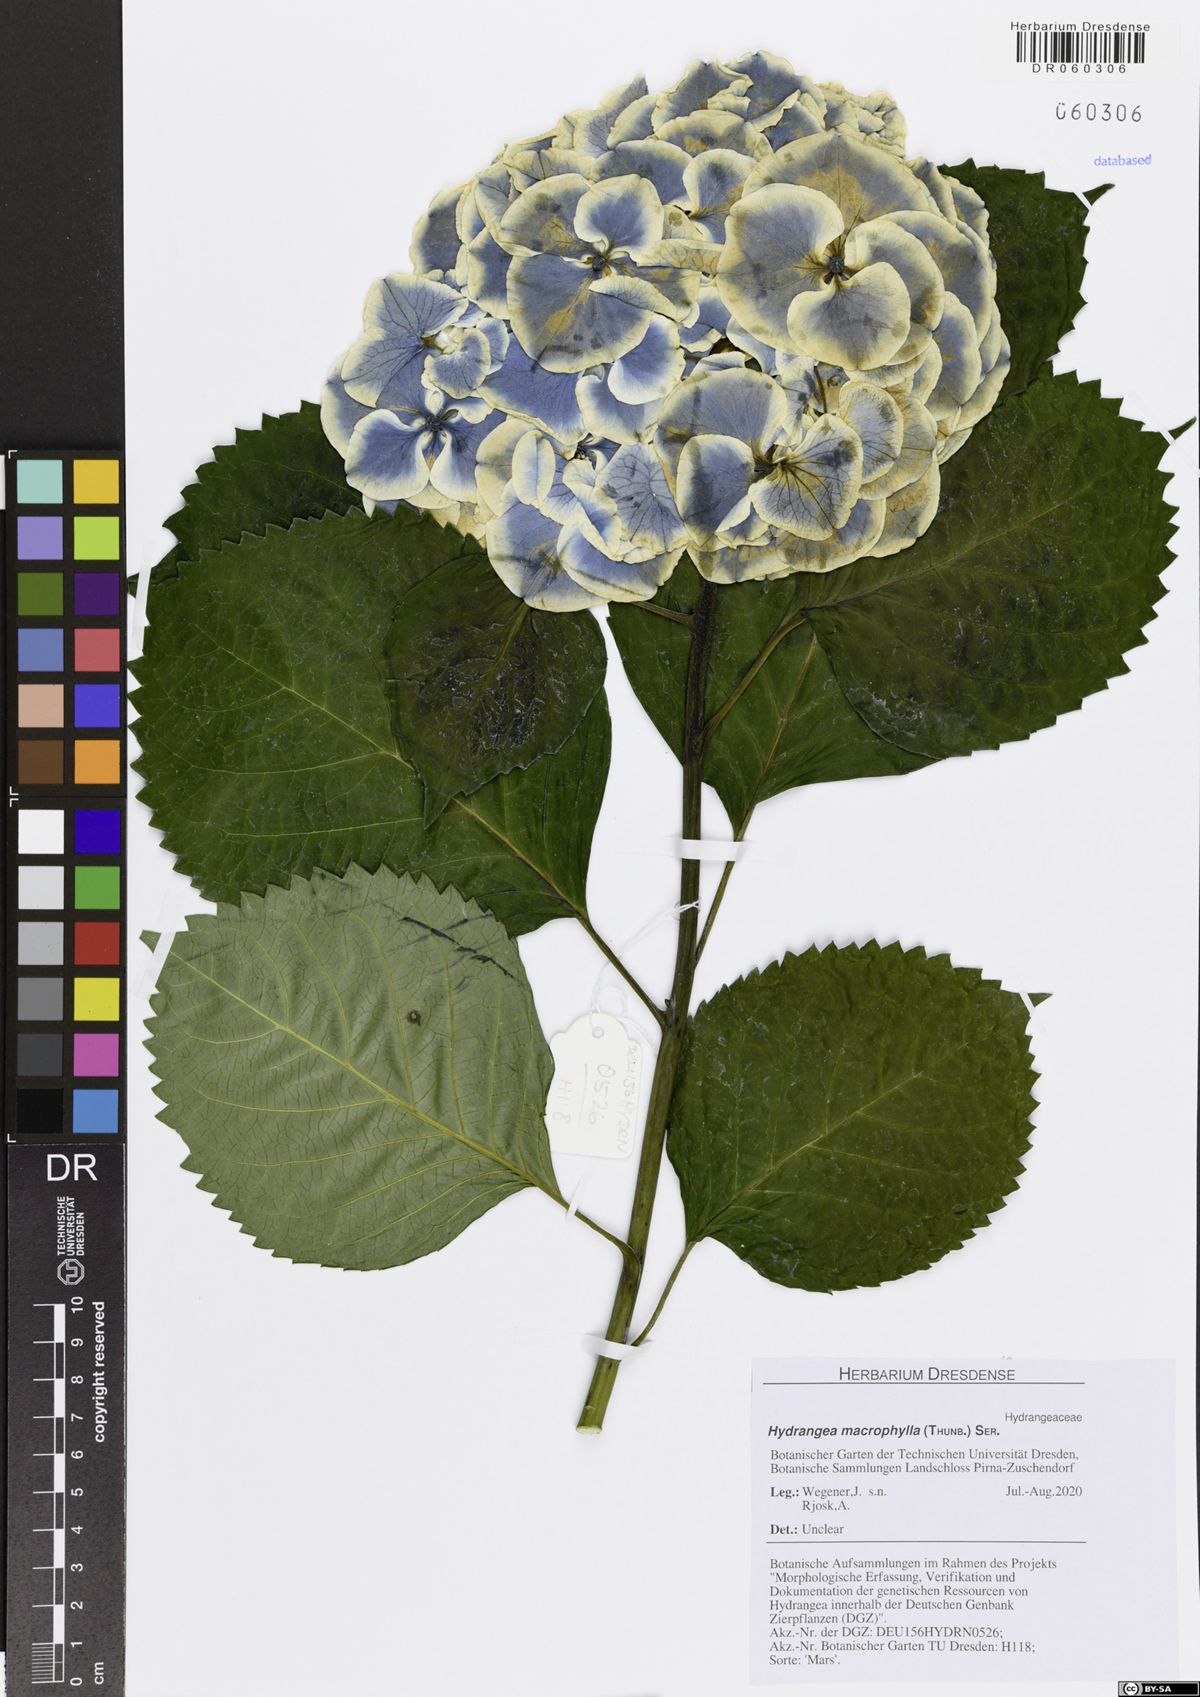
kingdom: Plantae
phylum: Tracheophyta
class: Magnoliopsida
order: Cornales
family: Hydrangeaceae
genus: Hydrangea
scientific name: Hydrangea macrophylla
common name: Hydrangea
